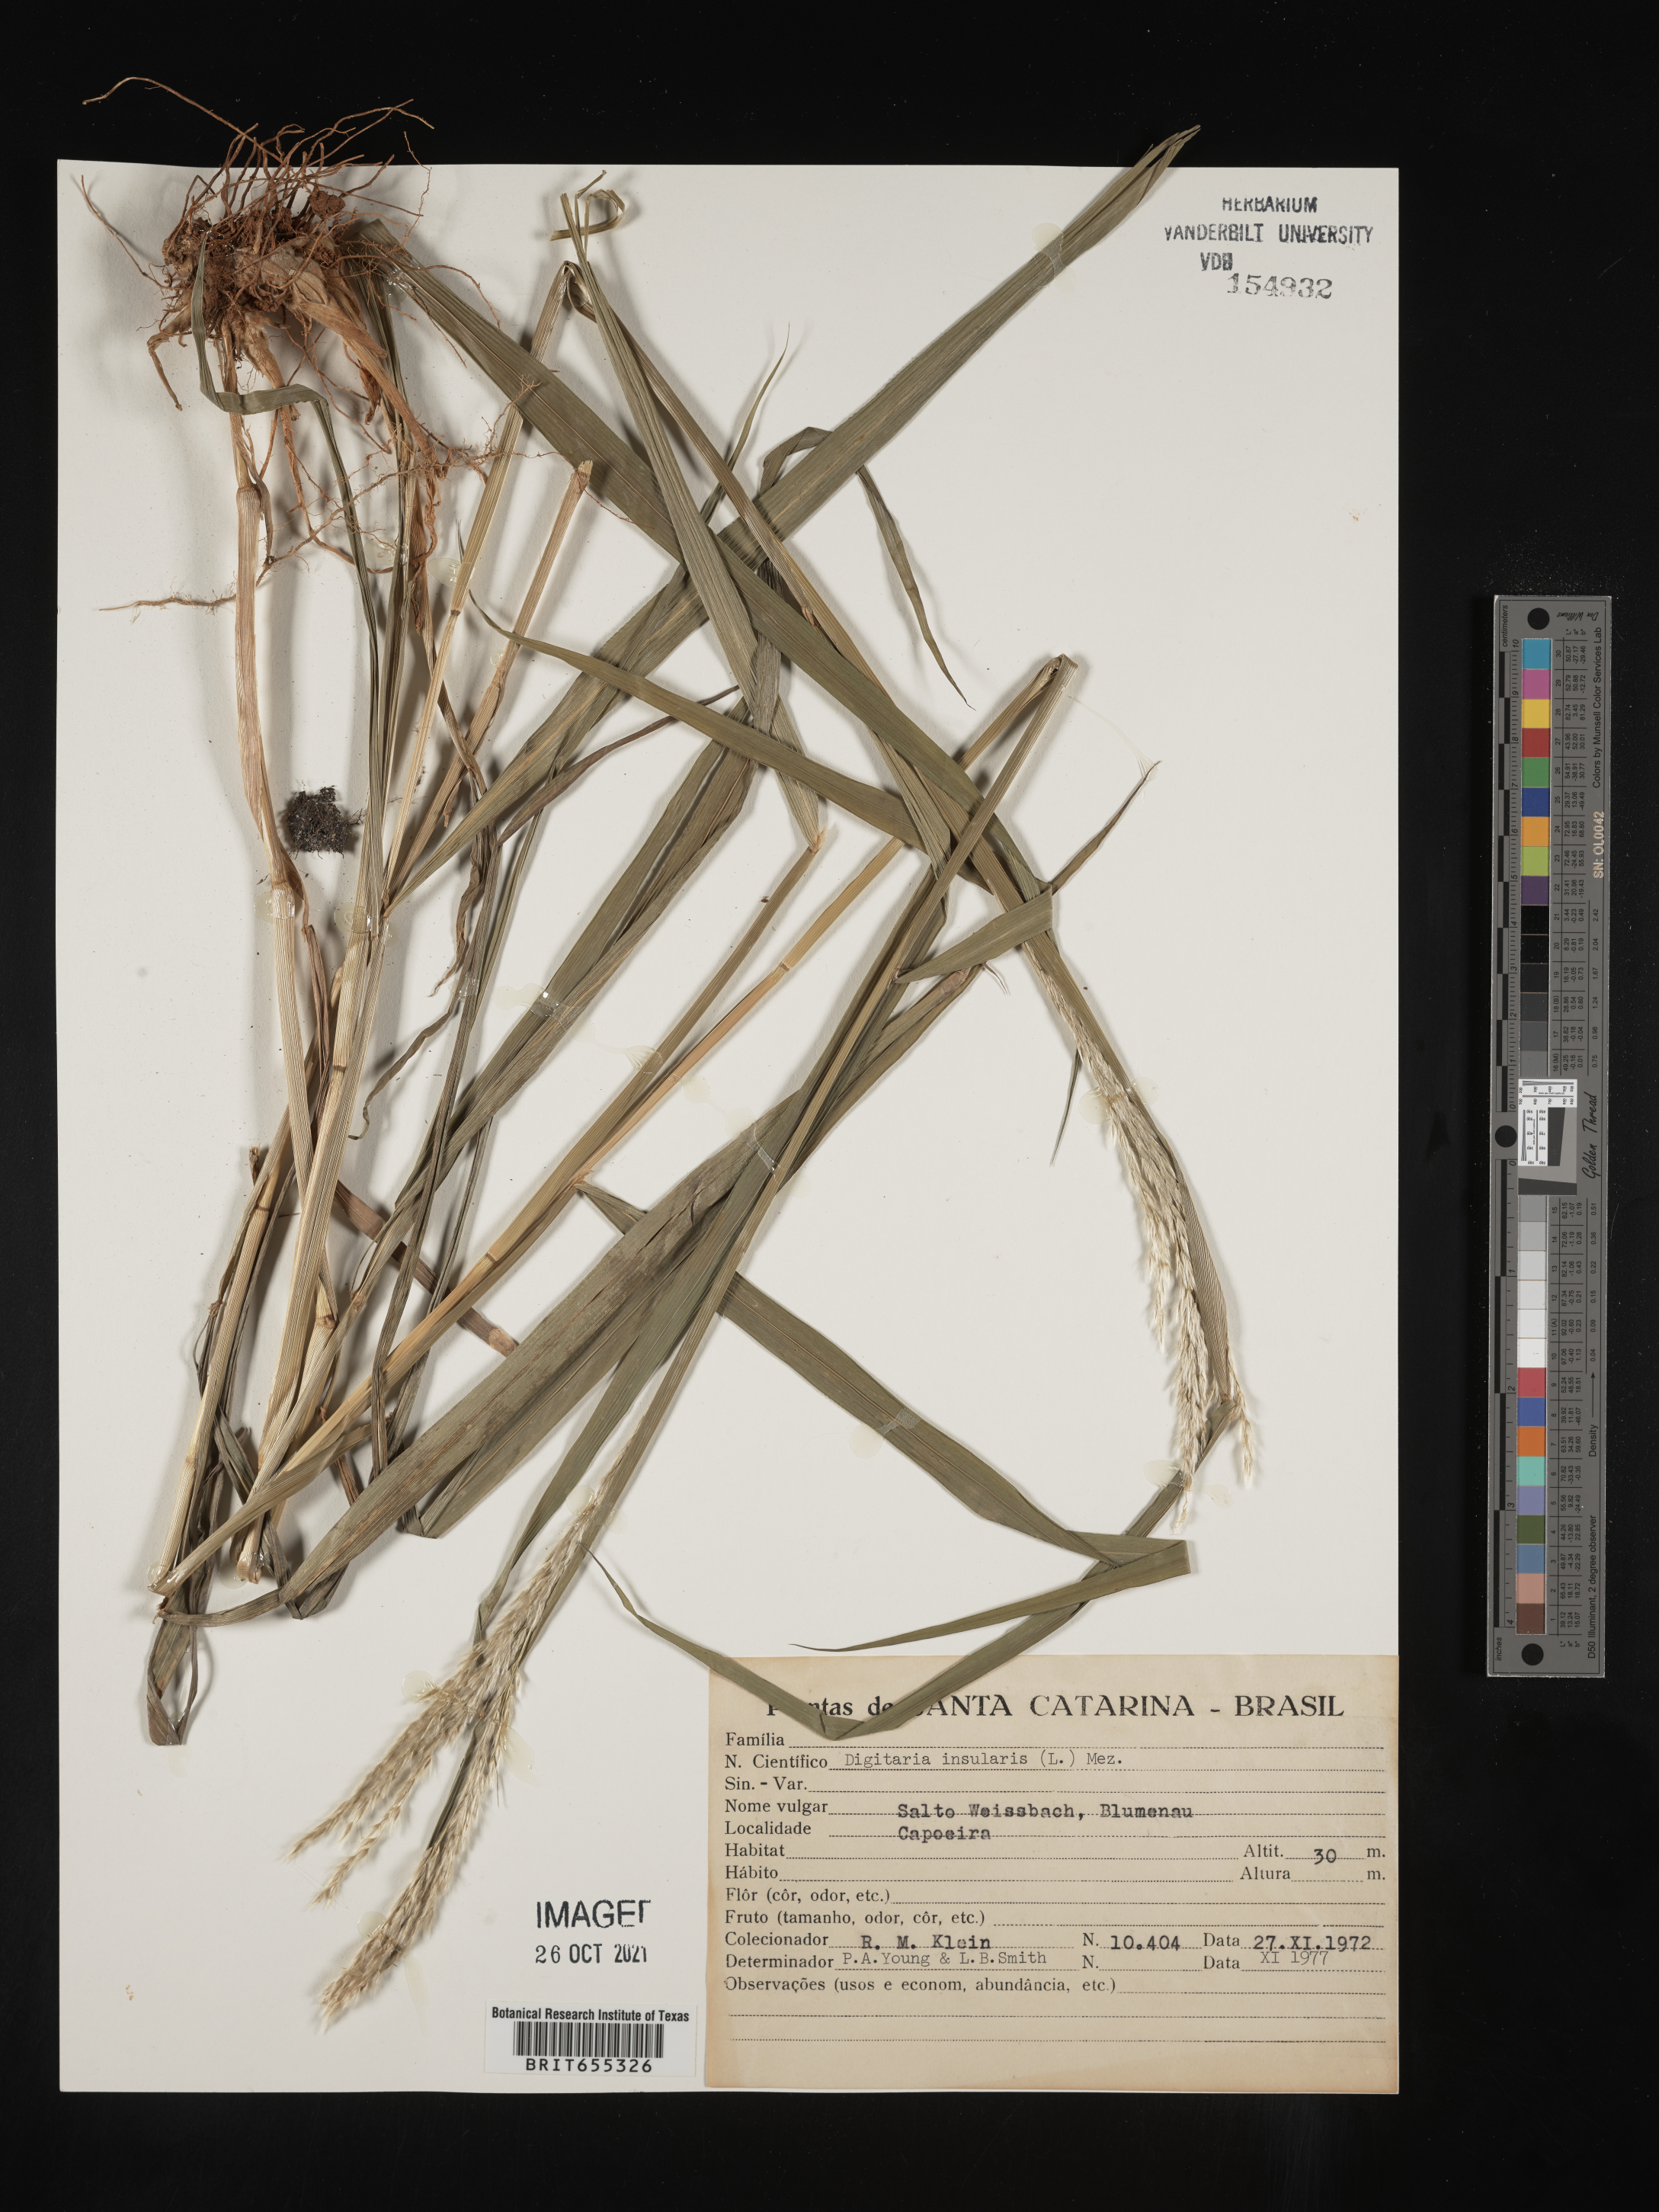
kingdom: Plantae
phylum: Tracheophyta
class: Liliopsida
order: Poales
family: Poaceae
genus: Digitaria
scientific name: Digitaria
